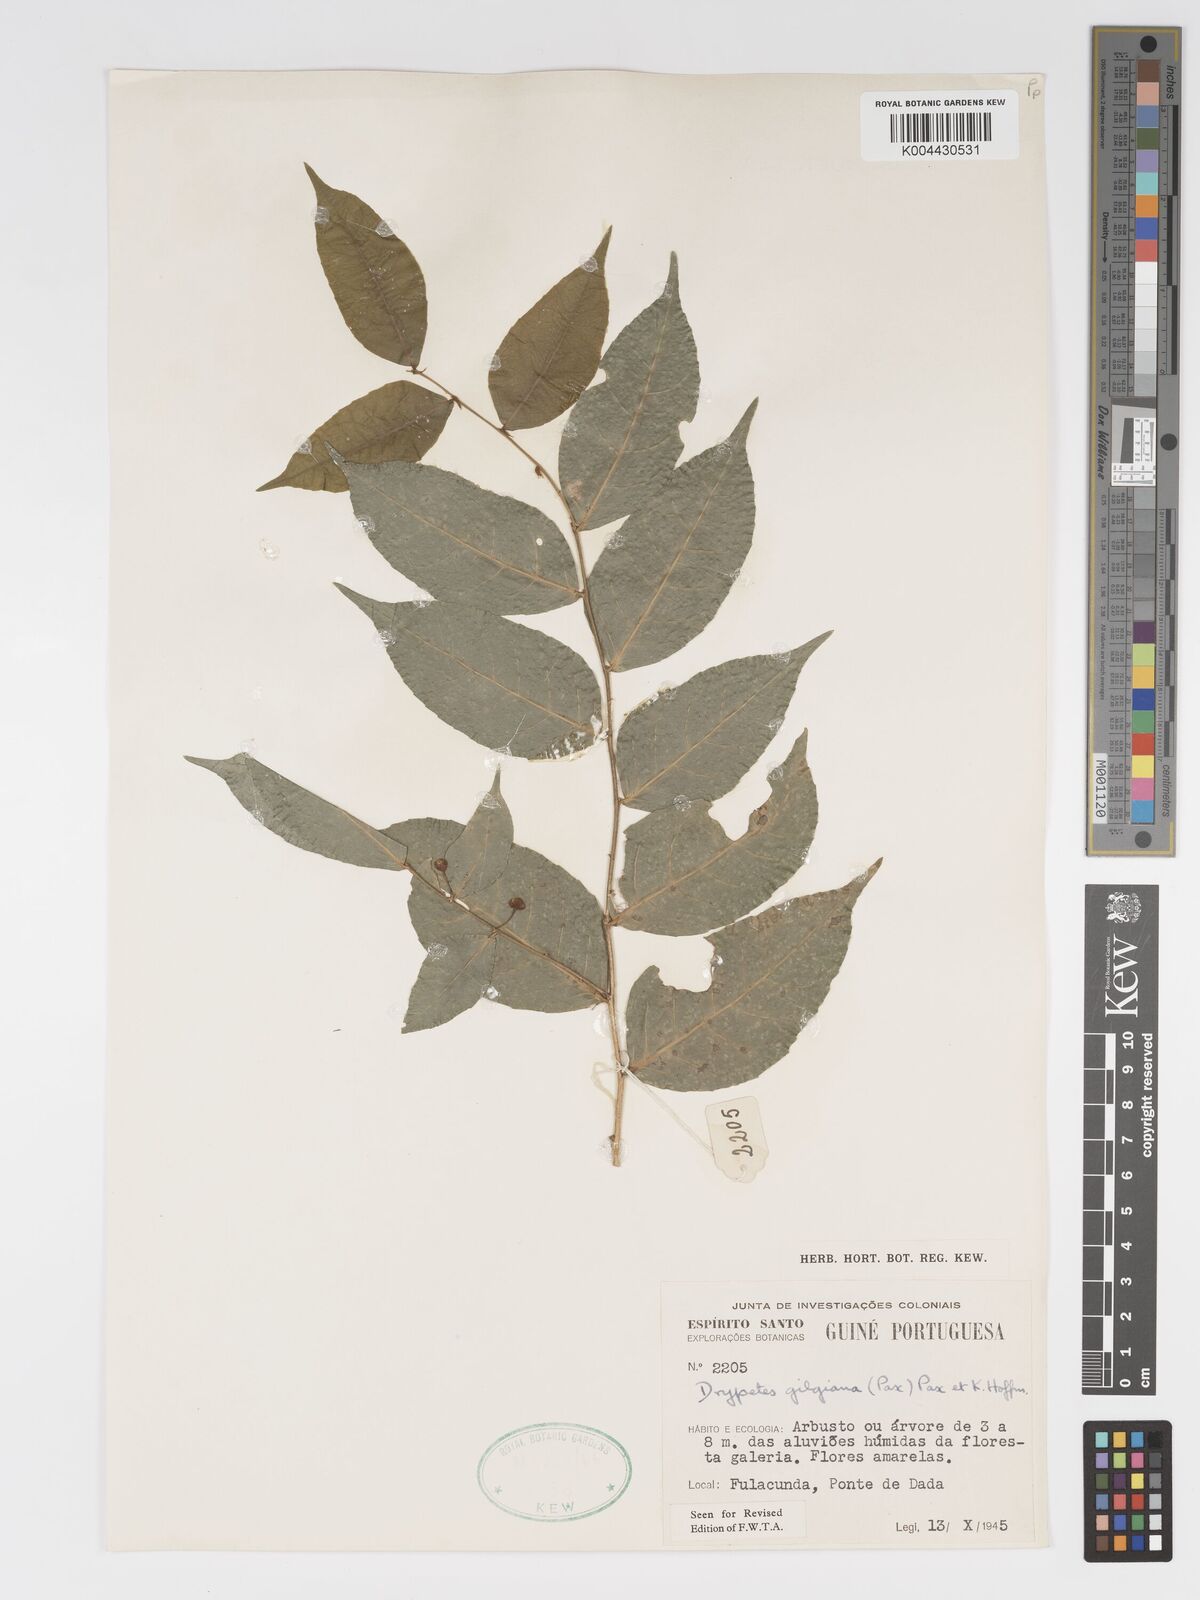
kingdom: Plantae
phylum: Tracheophyta
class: Magnoliopsida
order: Malpighiales
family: Putranjivaceae
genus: Drypetes
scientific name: Drypetes gilgiana
